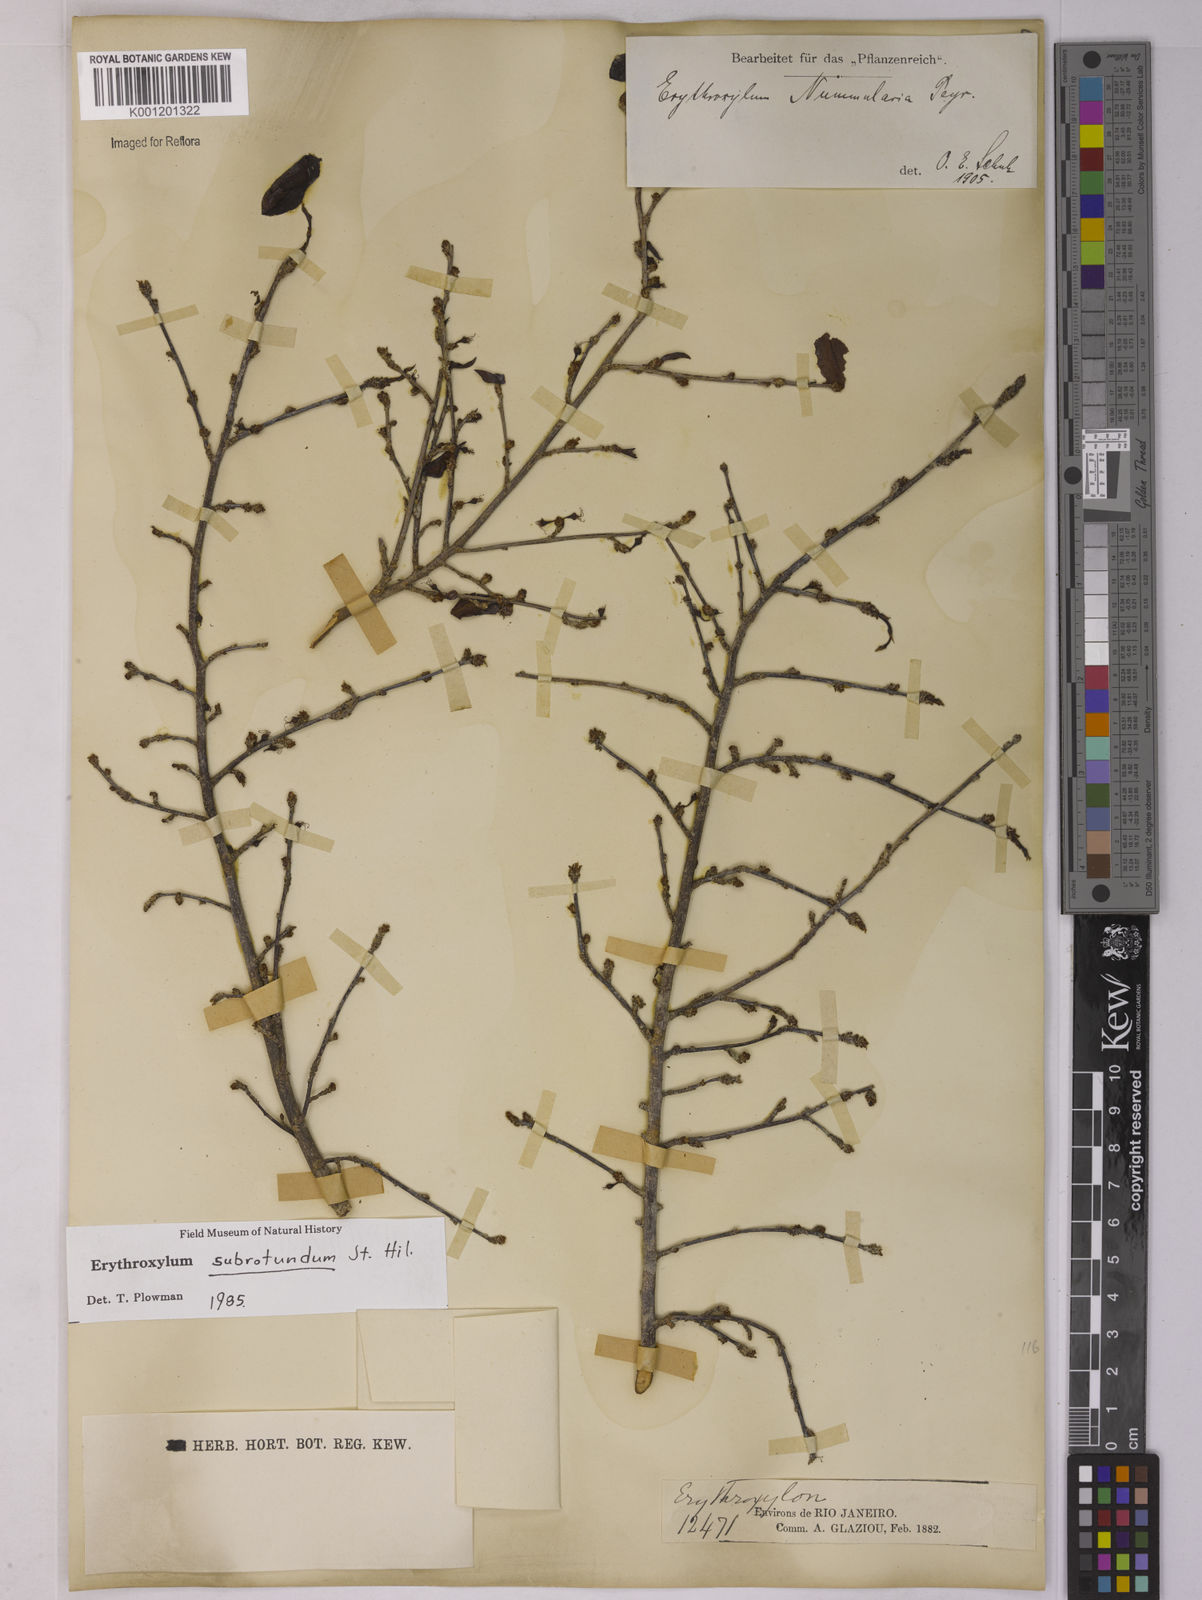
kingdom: Plantae
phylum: Tracheophyta
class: Magnoliopsida
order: Malpighiales
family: Erythroxylaceae
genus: Erythroxylum
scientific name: Erythroxylum subrotundum
